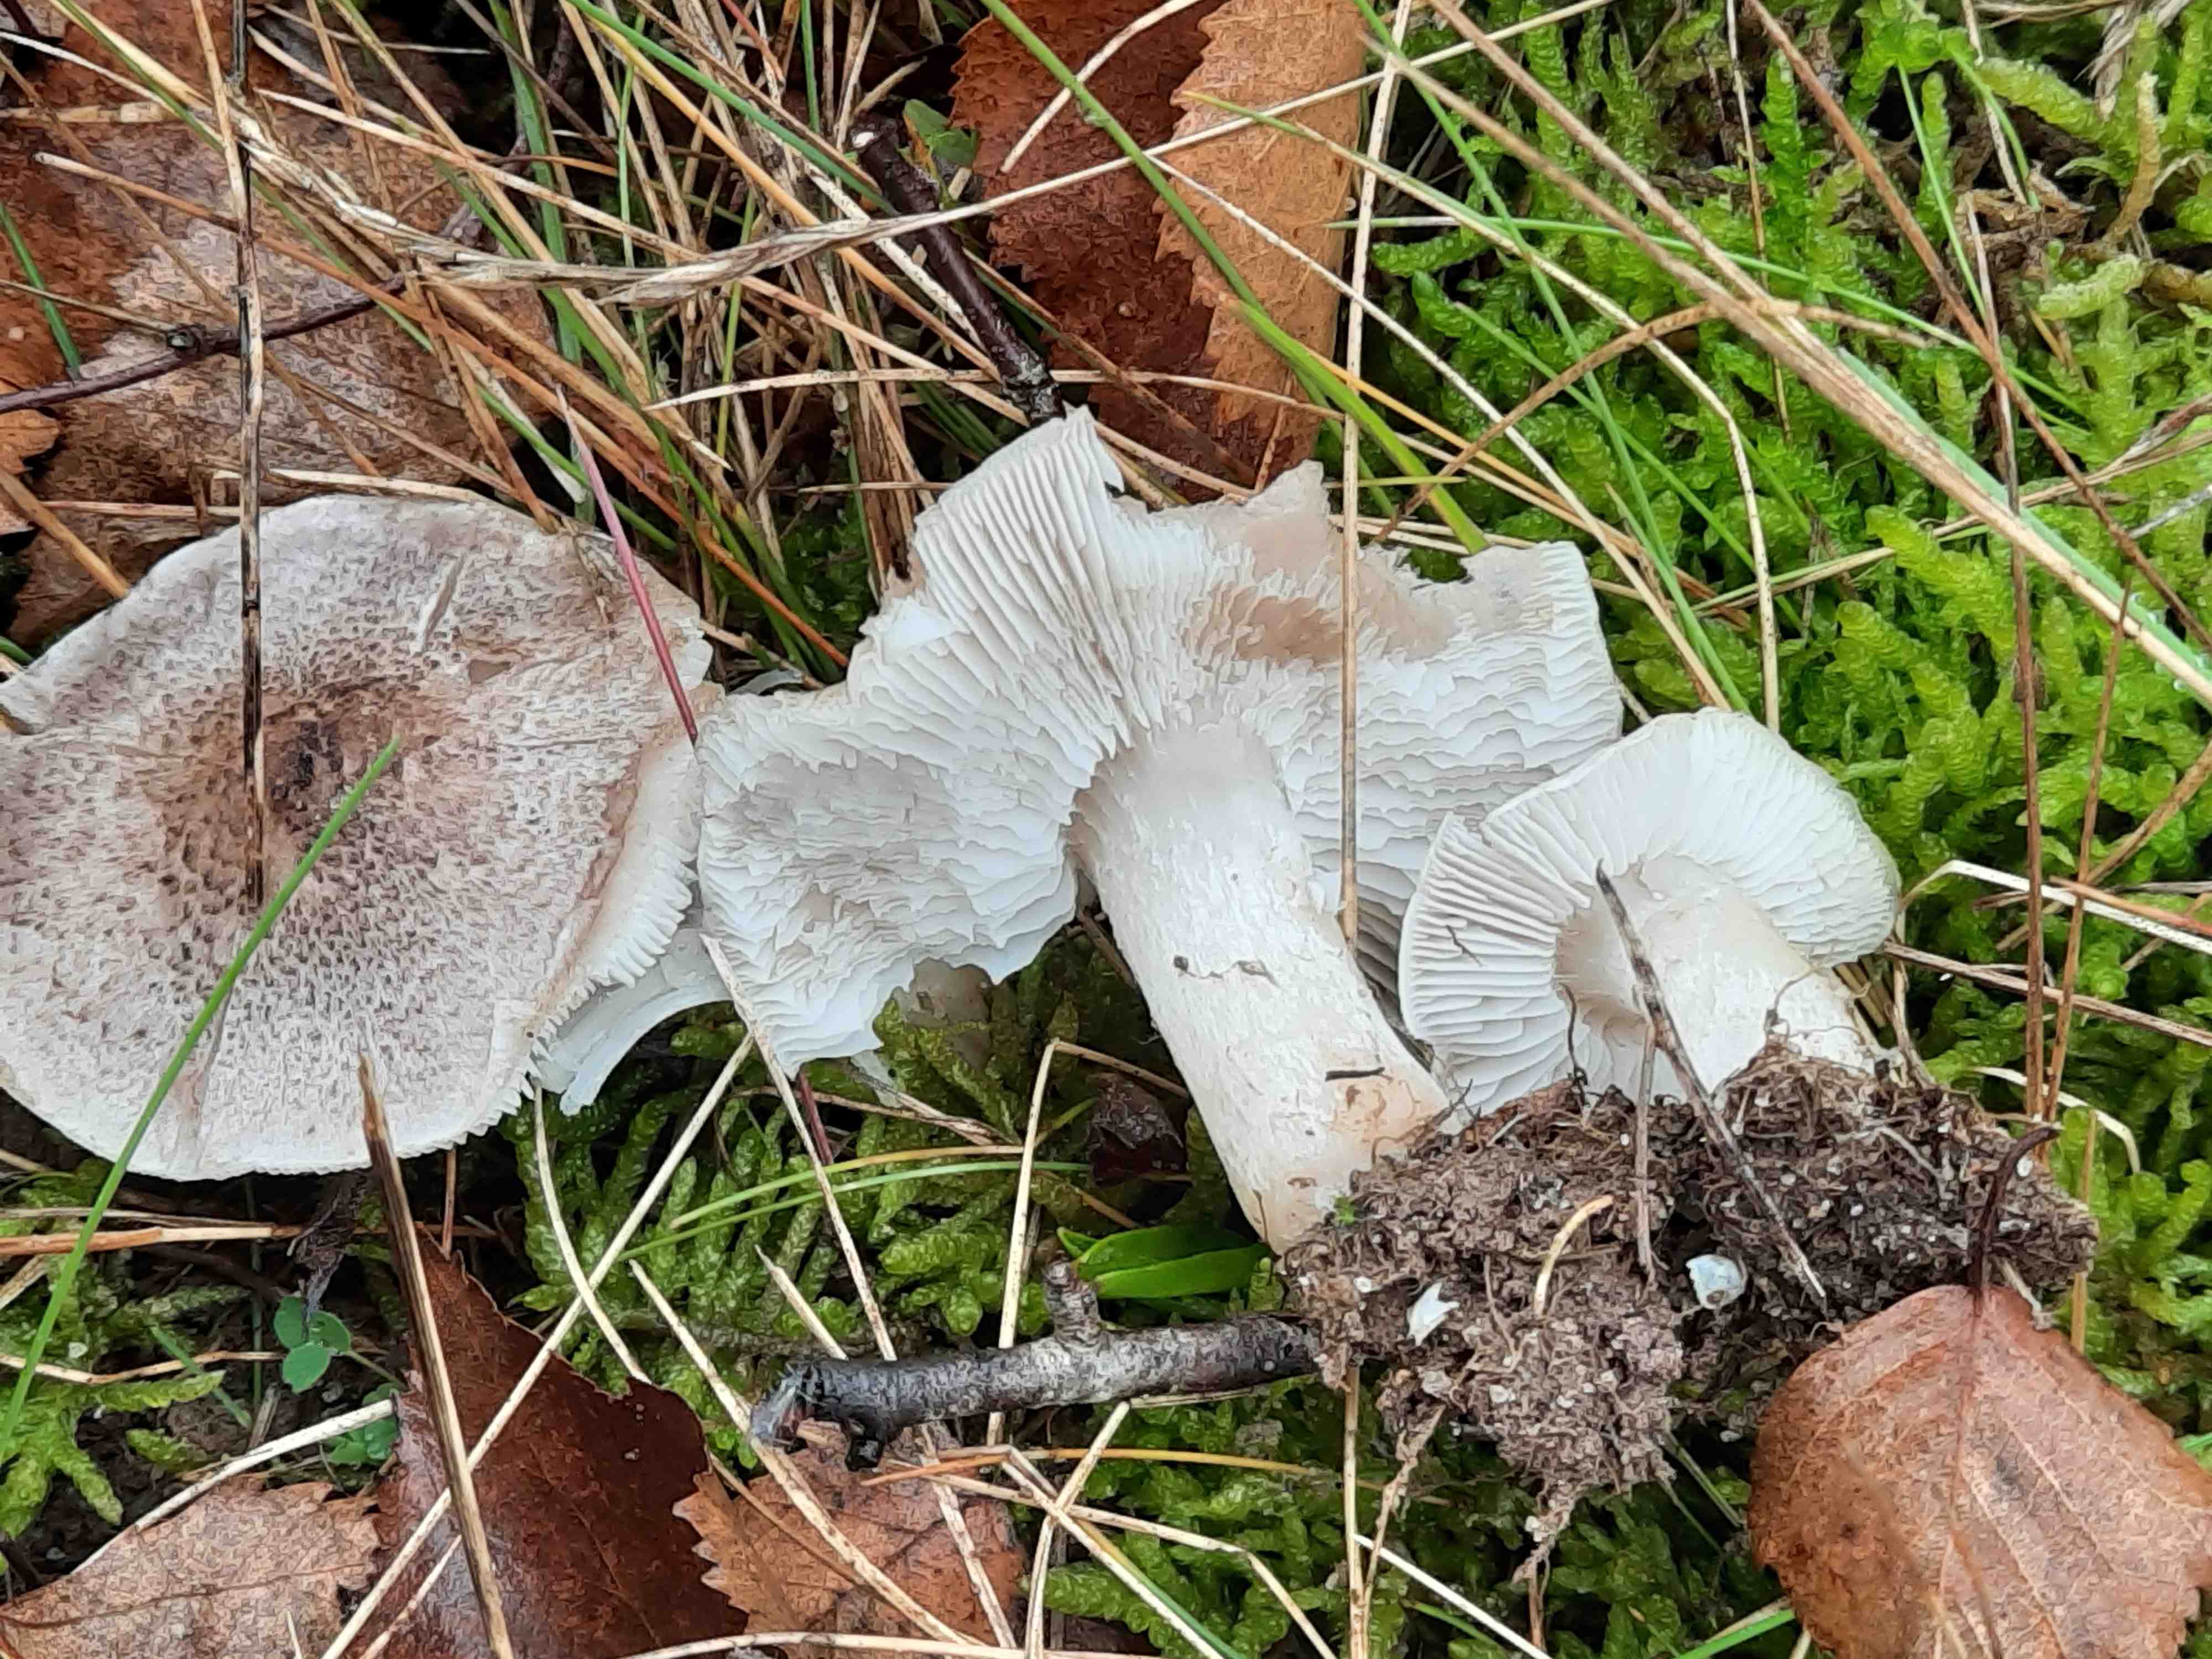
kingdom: Fungi
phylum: Basidiomycota
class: Agaricomycetes
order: Agaricales
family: Tricholomataceae
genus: Tricholoma
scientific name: Tricholoma scalpturatum
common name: gulplettet ridderhat
